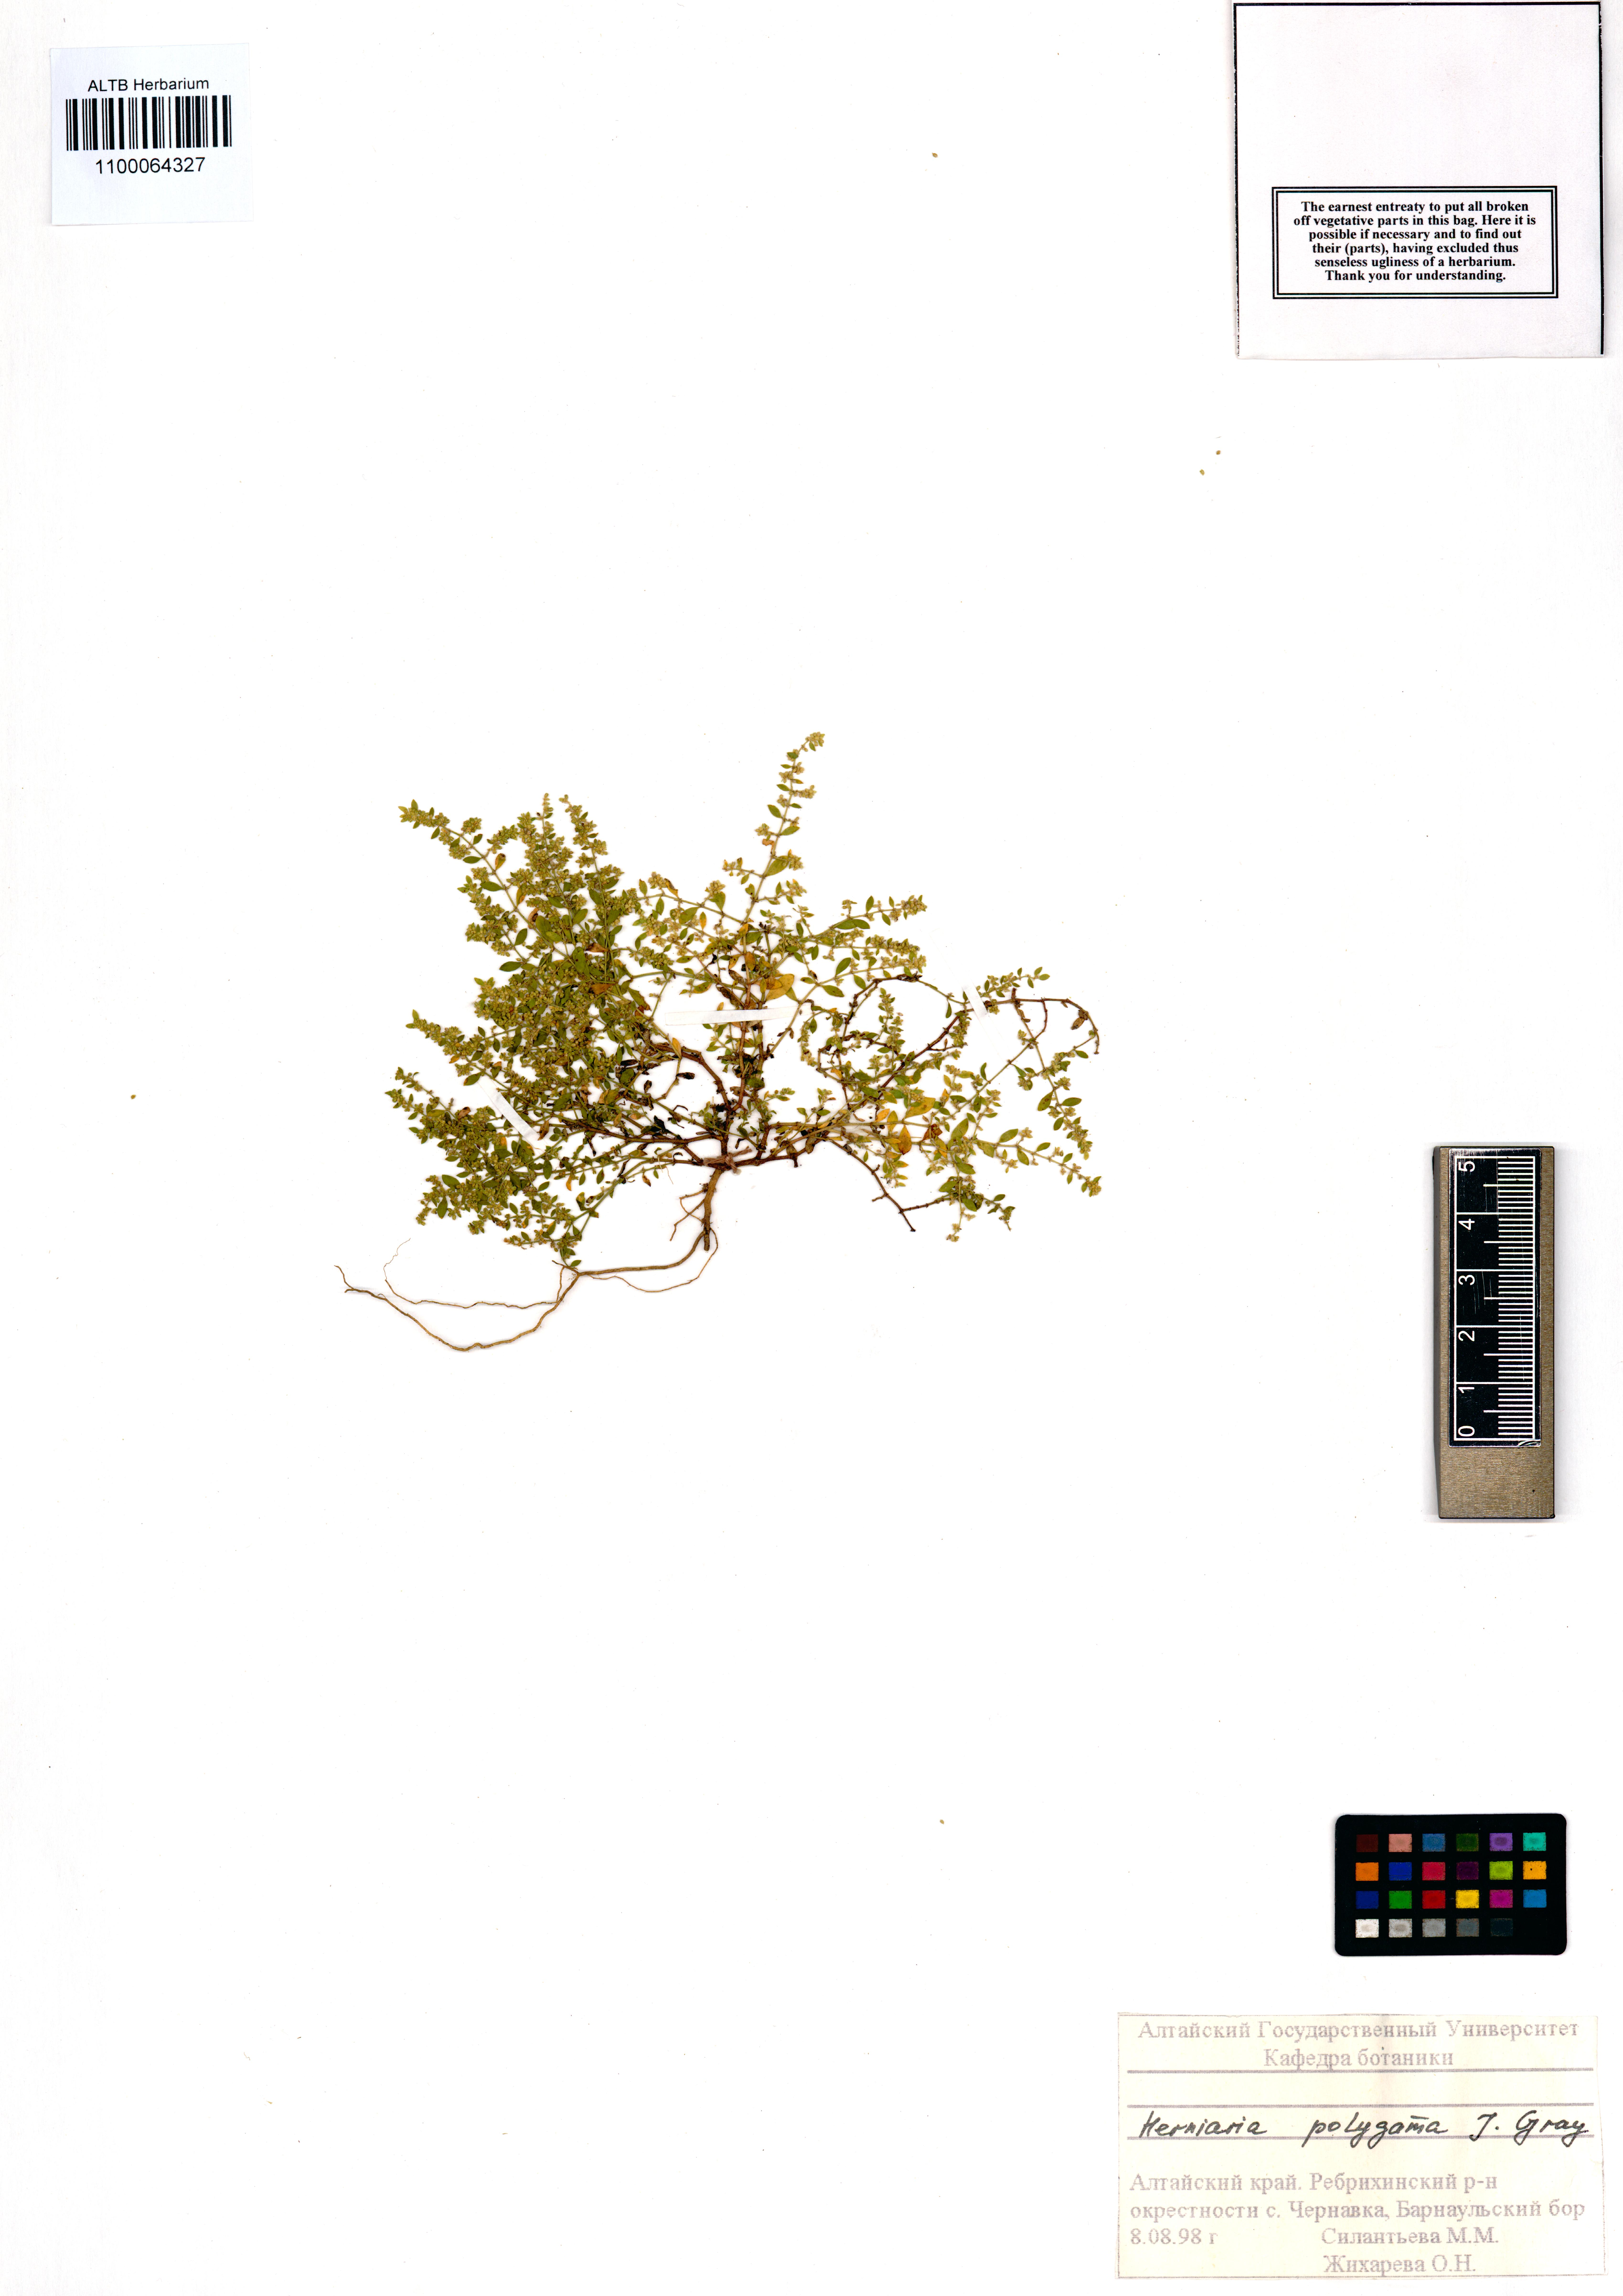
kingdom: Plantae
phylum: Tracheophyta
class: Magnoliopsida
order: Caryophyllales
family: Caryophyllaceae
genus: Herniaria
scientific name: Herniaria polygama
